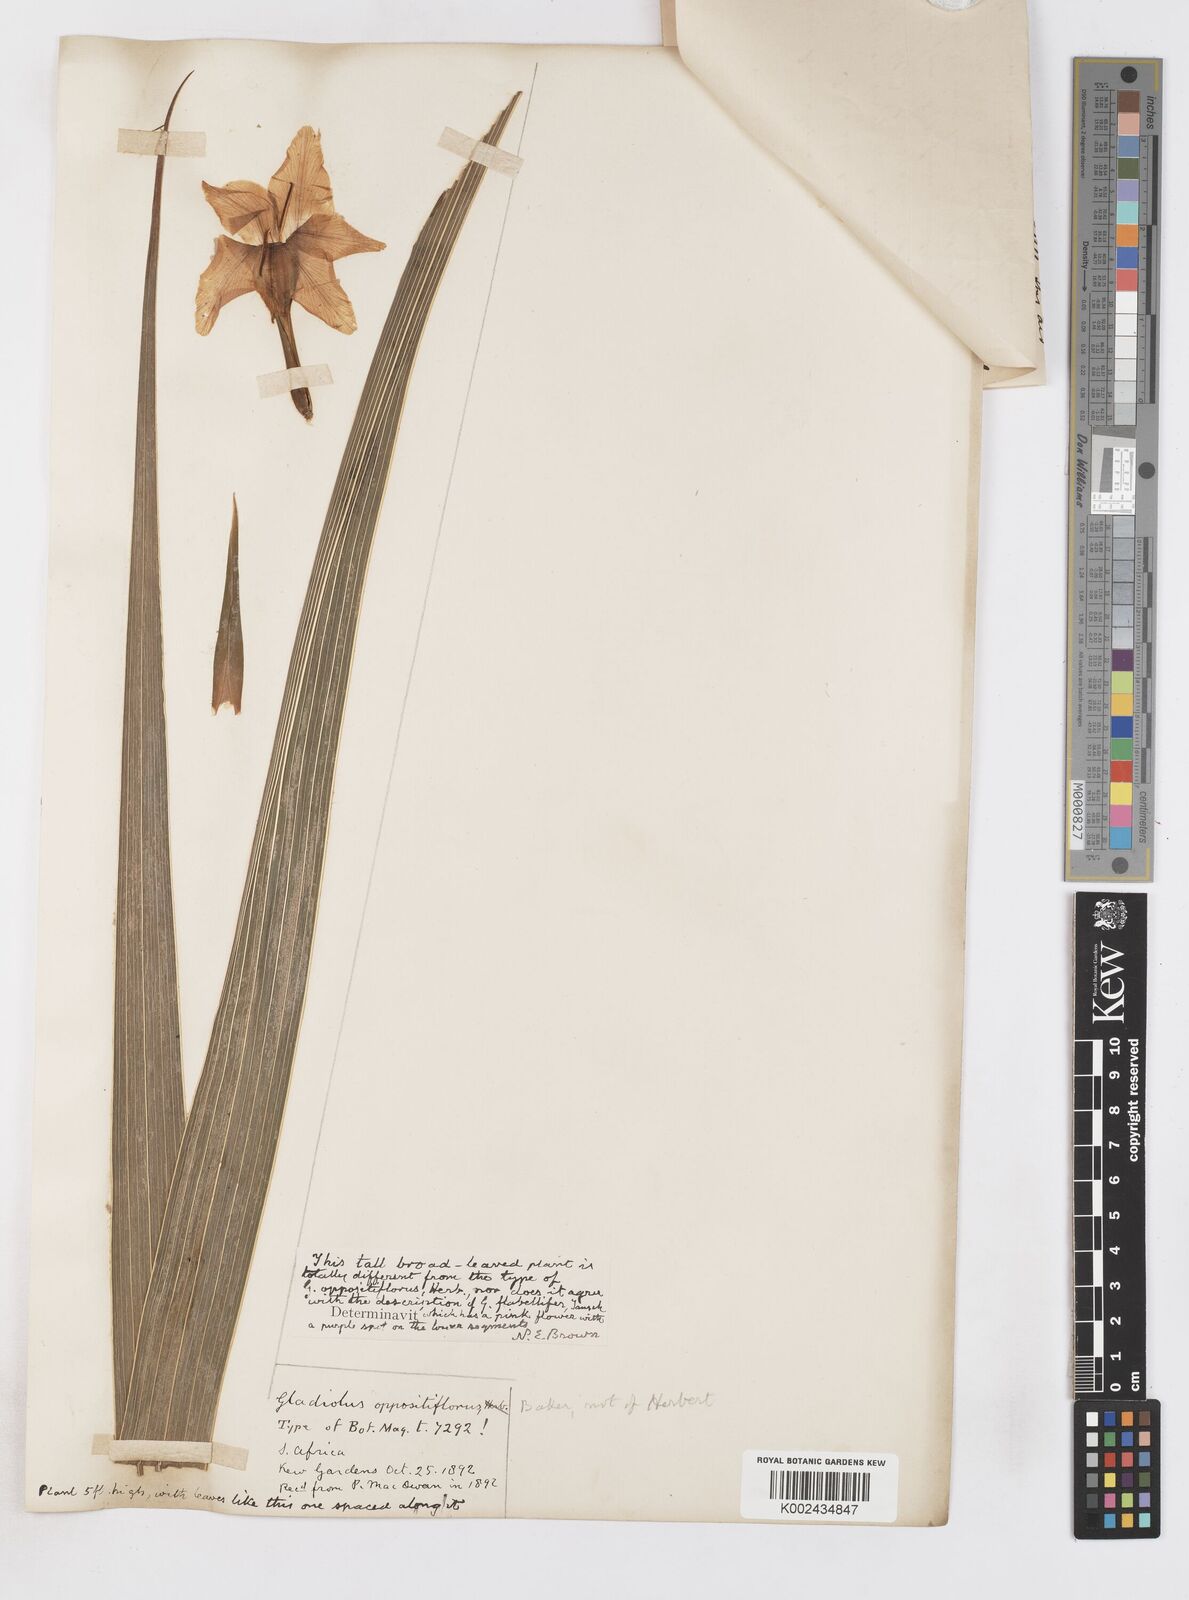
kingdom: Plantae
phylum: Tracheophyta
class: Liliopsida
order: Asparagales
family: Iridaceae
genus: Gladiolus
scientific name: Gladiolus oppositiflorus
